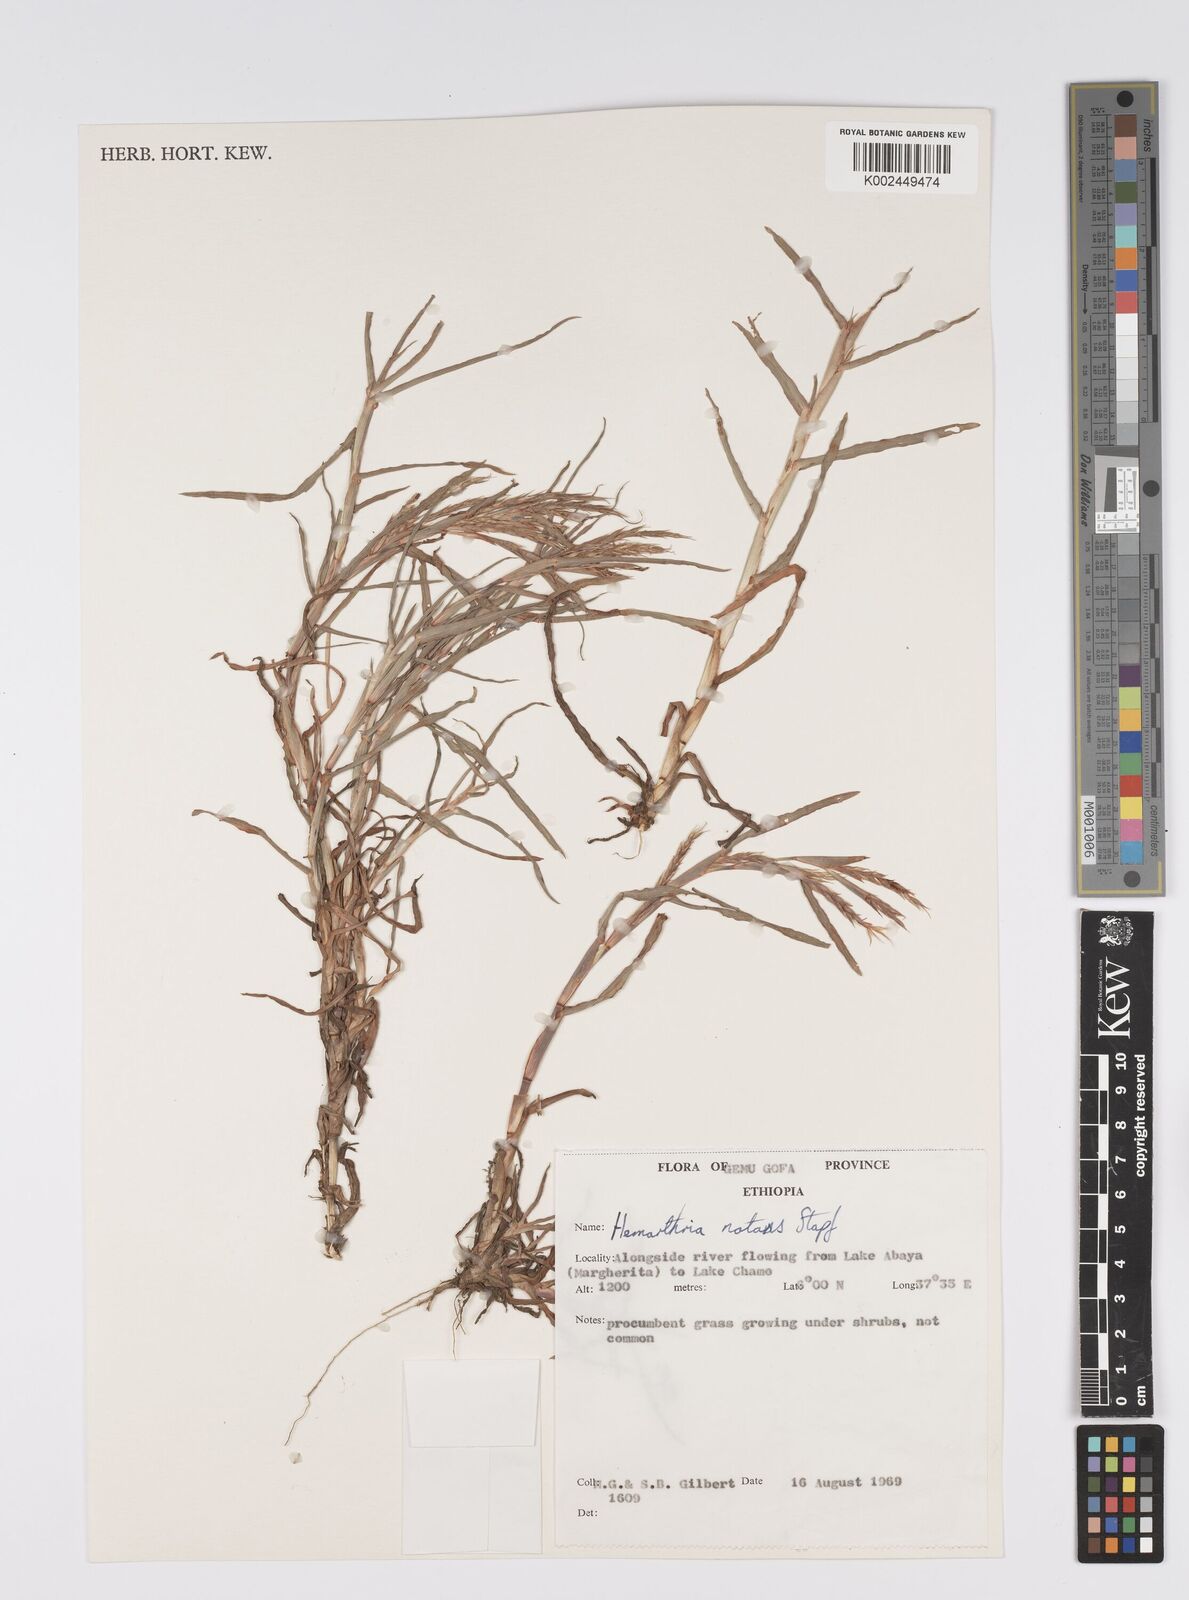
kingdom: Plantae
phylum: Tracheophyta
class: Liliopsida
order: Poales
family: Poaceae
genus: Hemarthria
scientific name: Hemarthria natans
